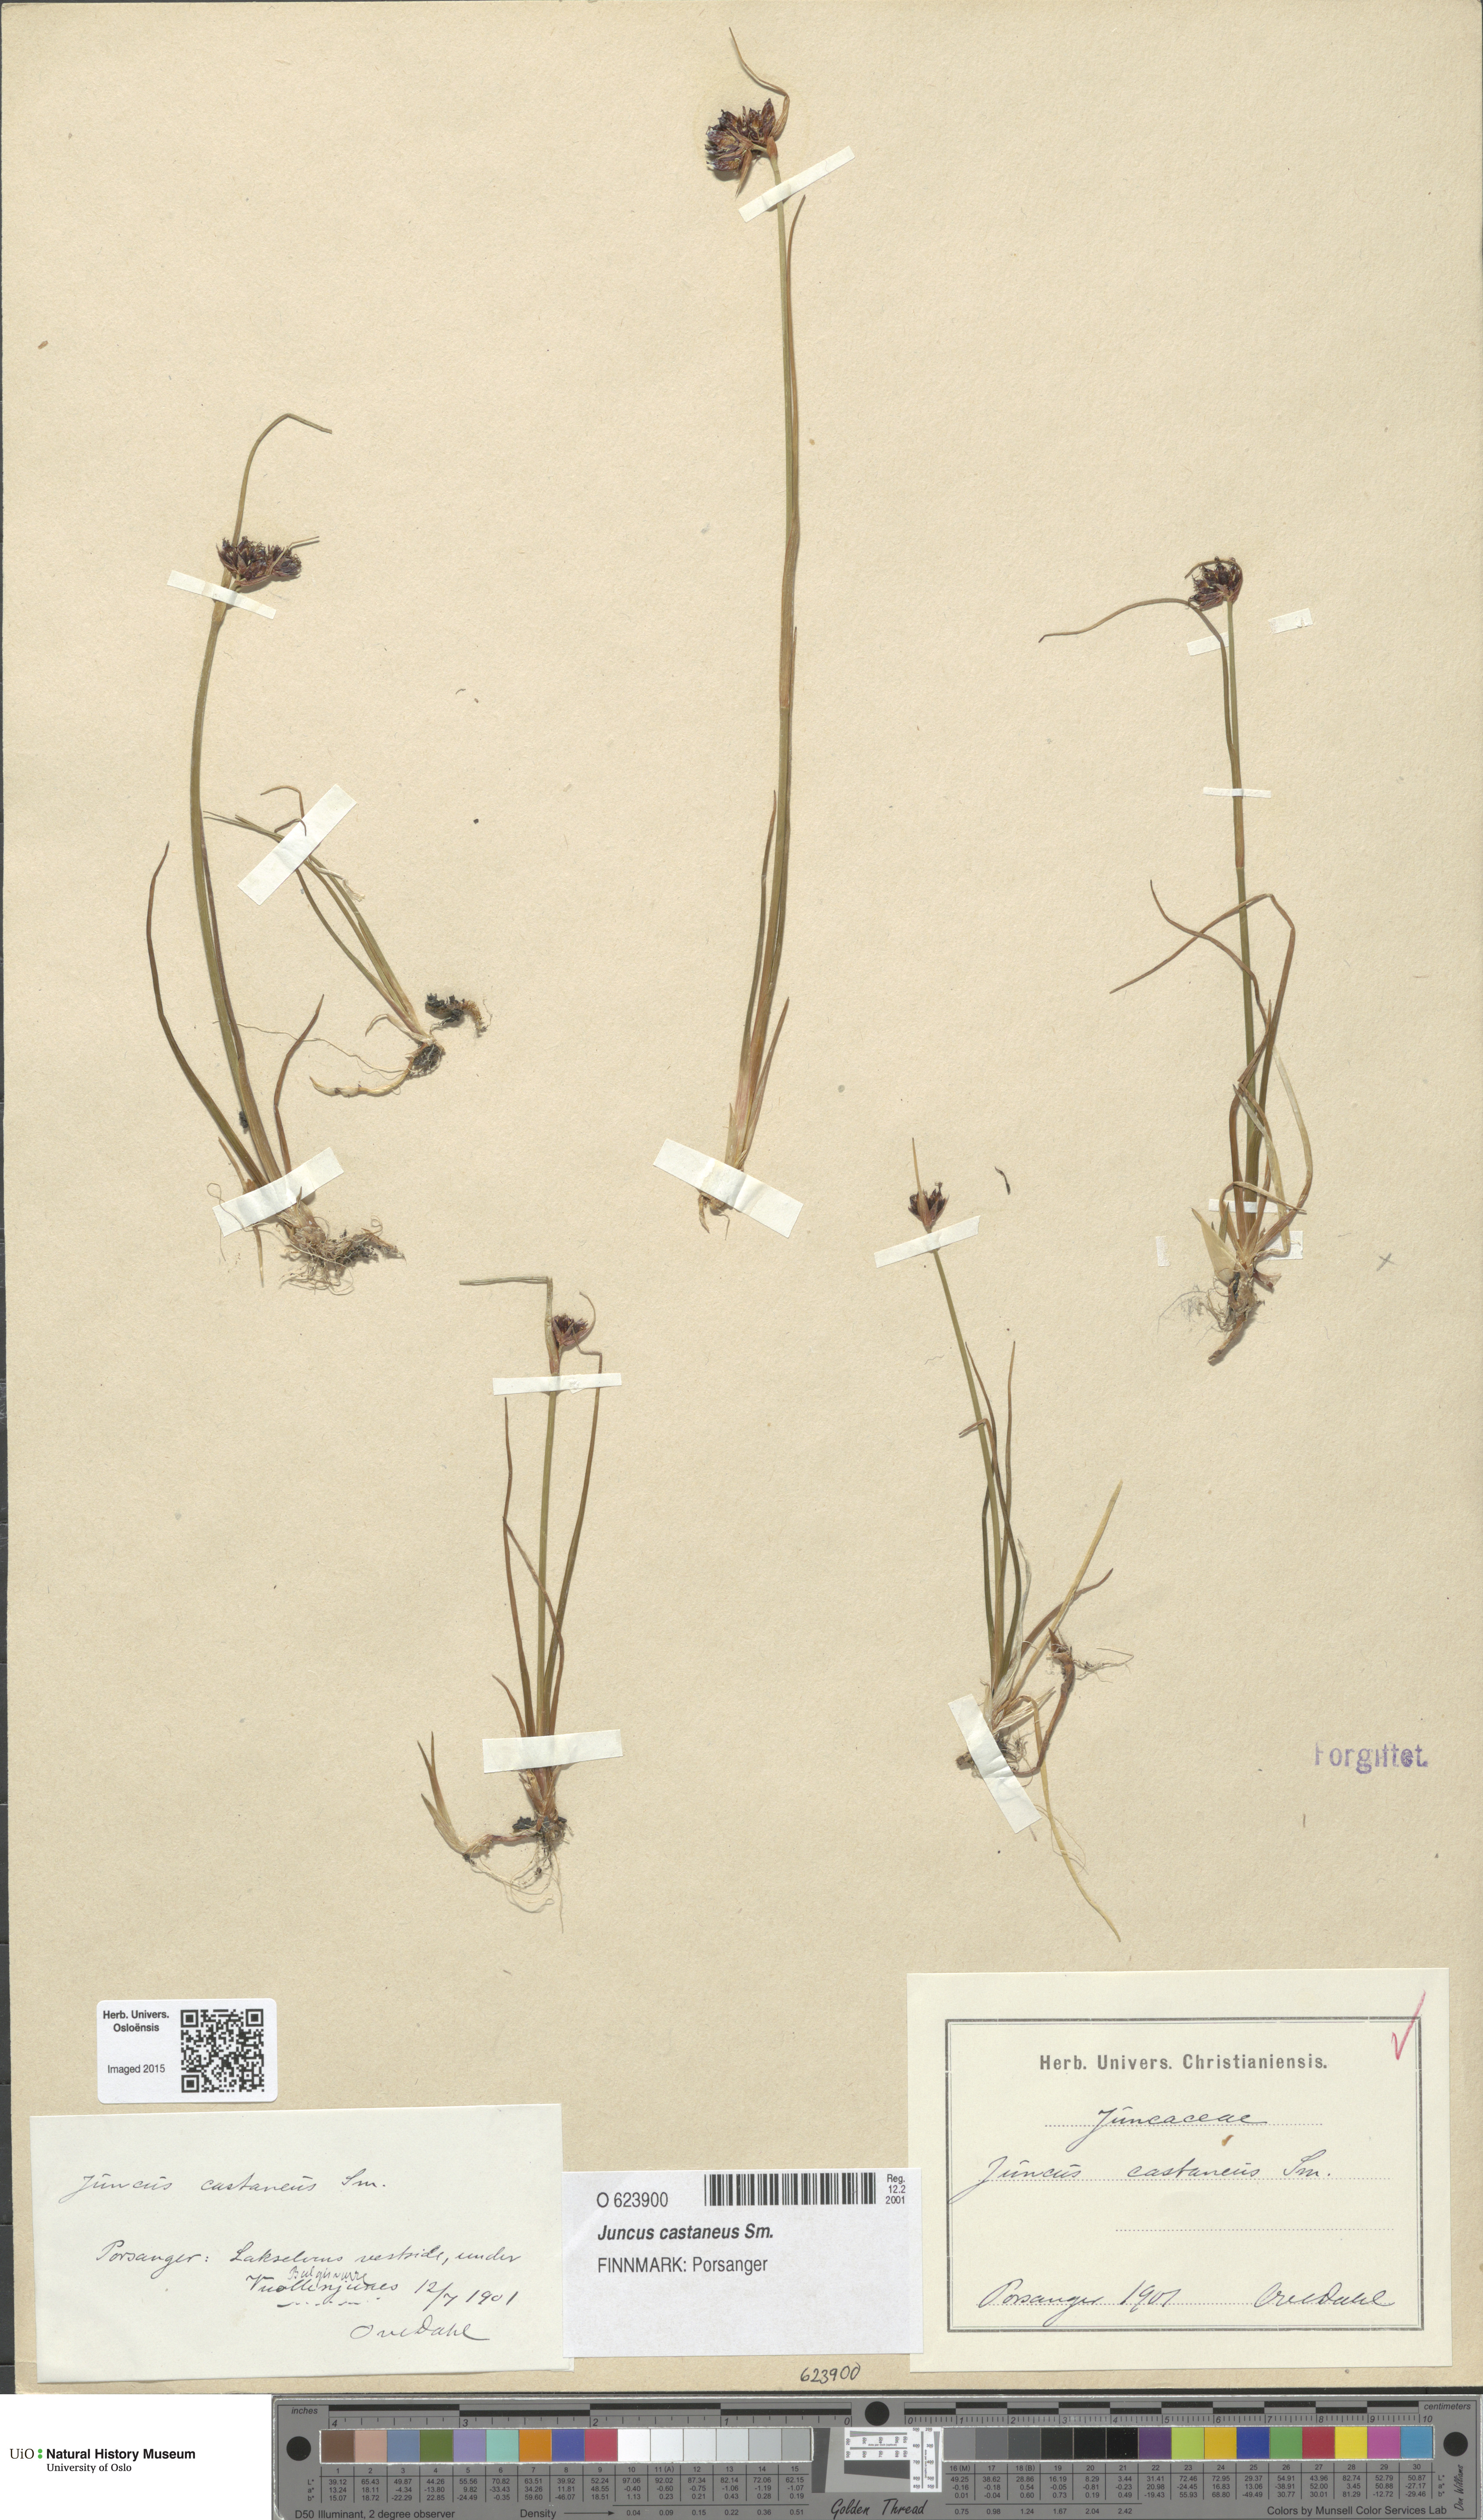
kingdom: Plantae
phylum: Tracheophyta
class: Liliopsida
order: Poales
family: Juncaceae
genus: Juncus
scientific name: Juncus castaneus
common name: Chestnut rush
